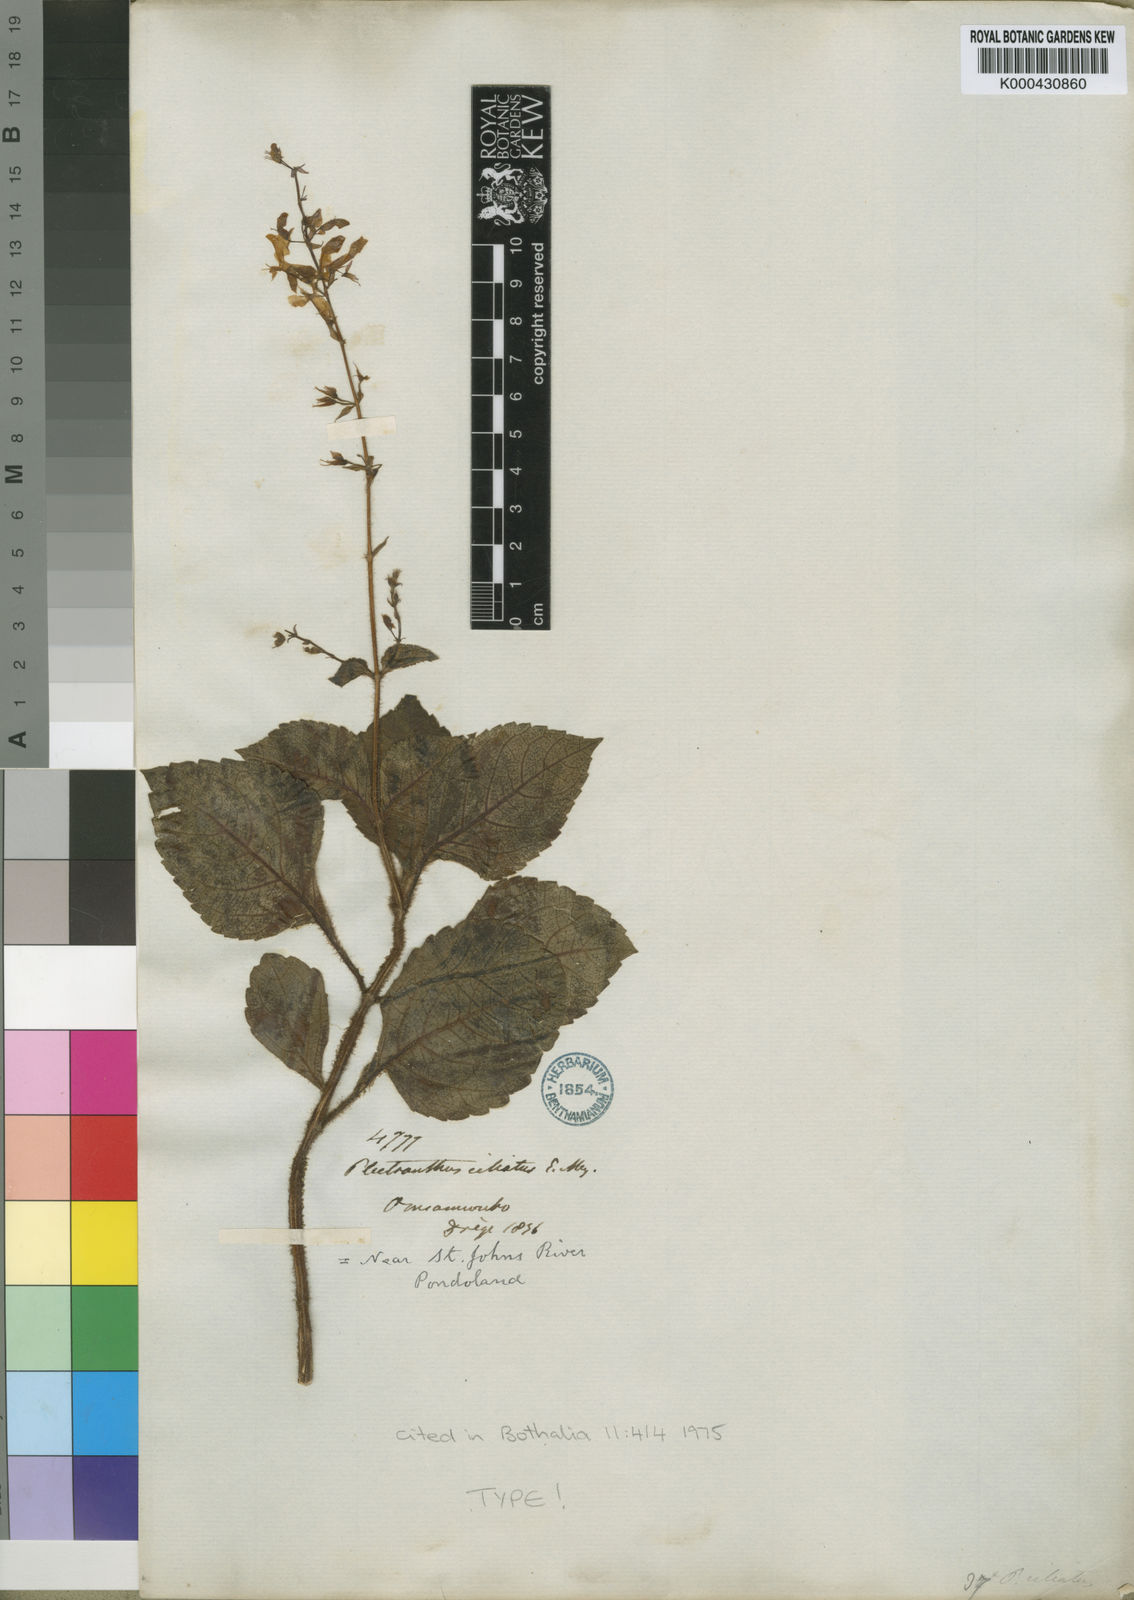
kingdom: Plantae
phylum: Tracheophyta
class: Magnoliopsida
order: Lamiales
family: Lamiaceae
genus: Plectranthus
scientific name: Plectranthus
